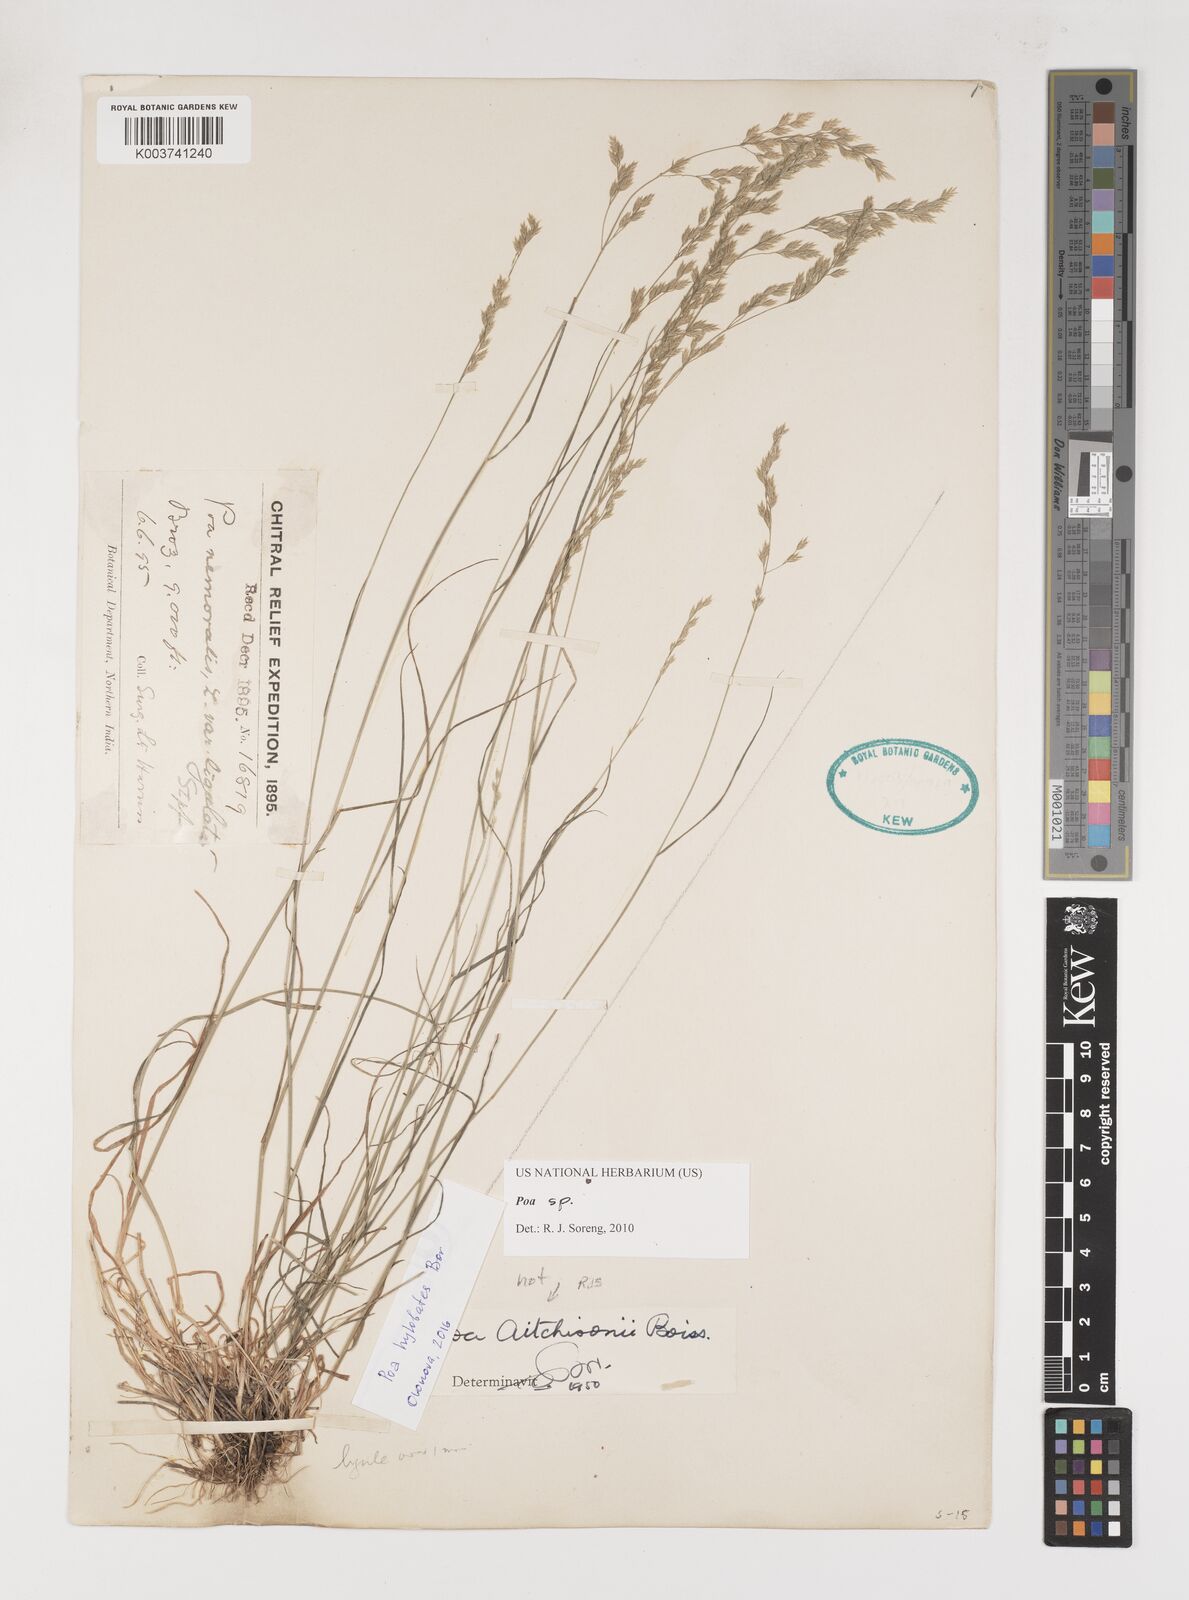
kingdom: Plantae
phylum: Tracheophyta
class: Liliopsida
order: Poales
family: Poaceae
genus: Poa
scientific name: Poa
